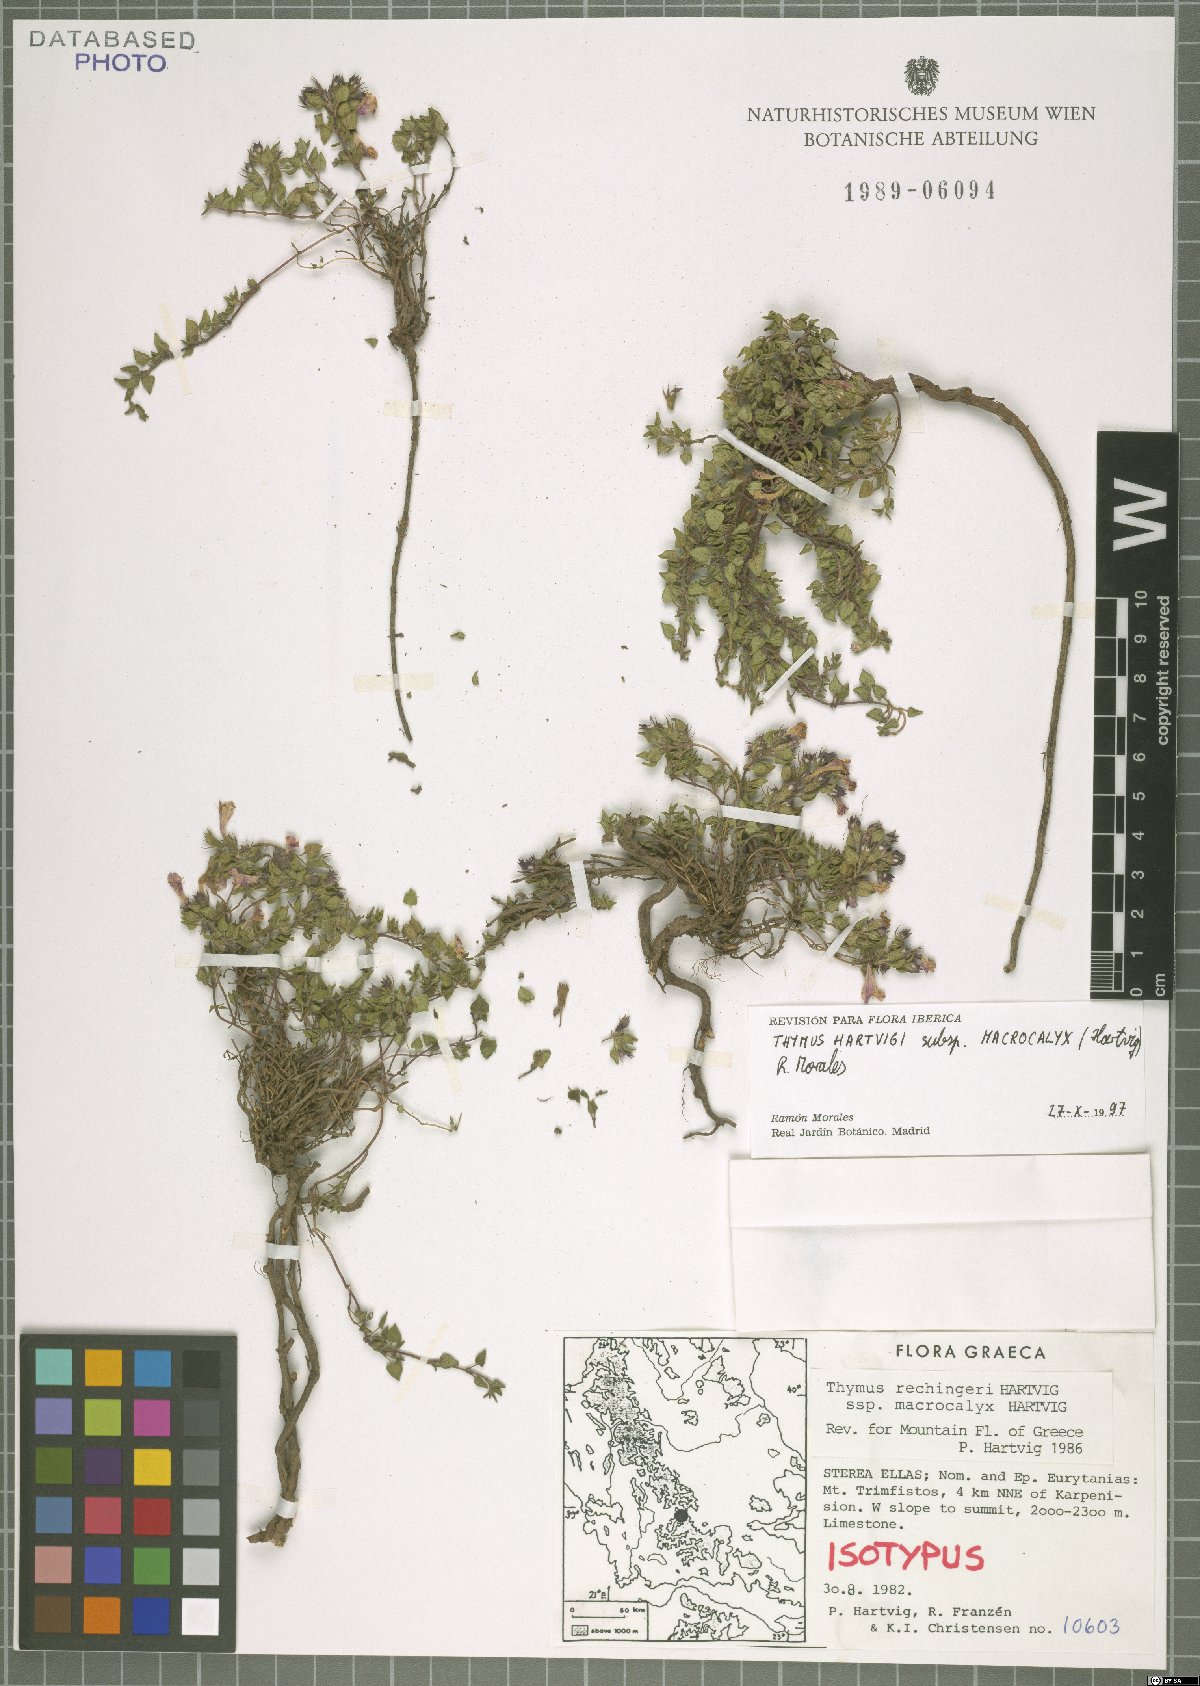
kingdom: Plantae
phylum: Tracheophyta
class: Magnoliopsida
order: Lamiales
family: Lamiaceae
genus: Thymus
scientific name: Thymus hartvigii
